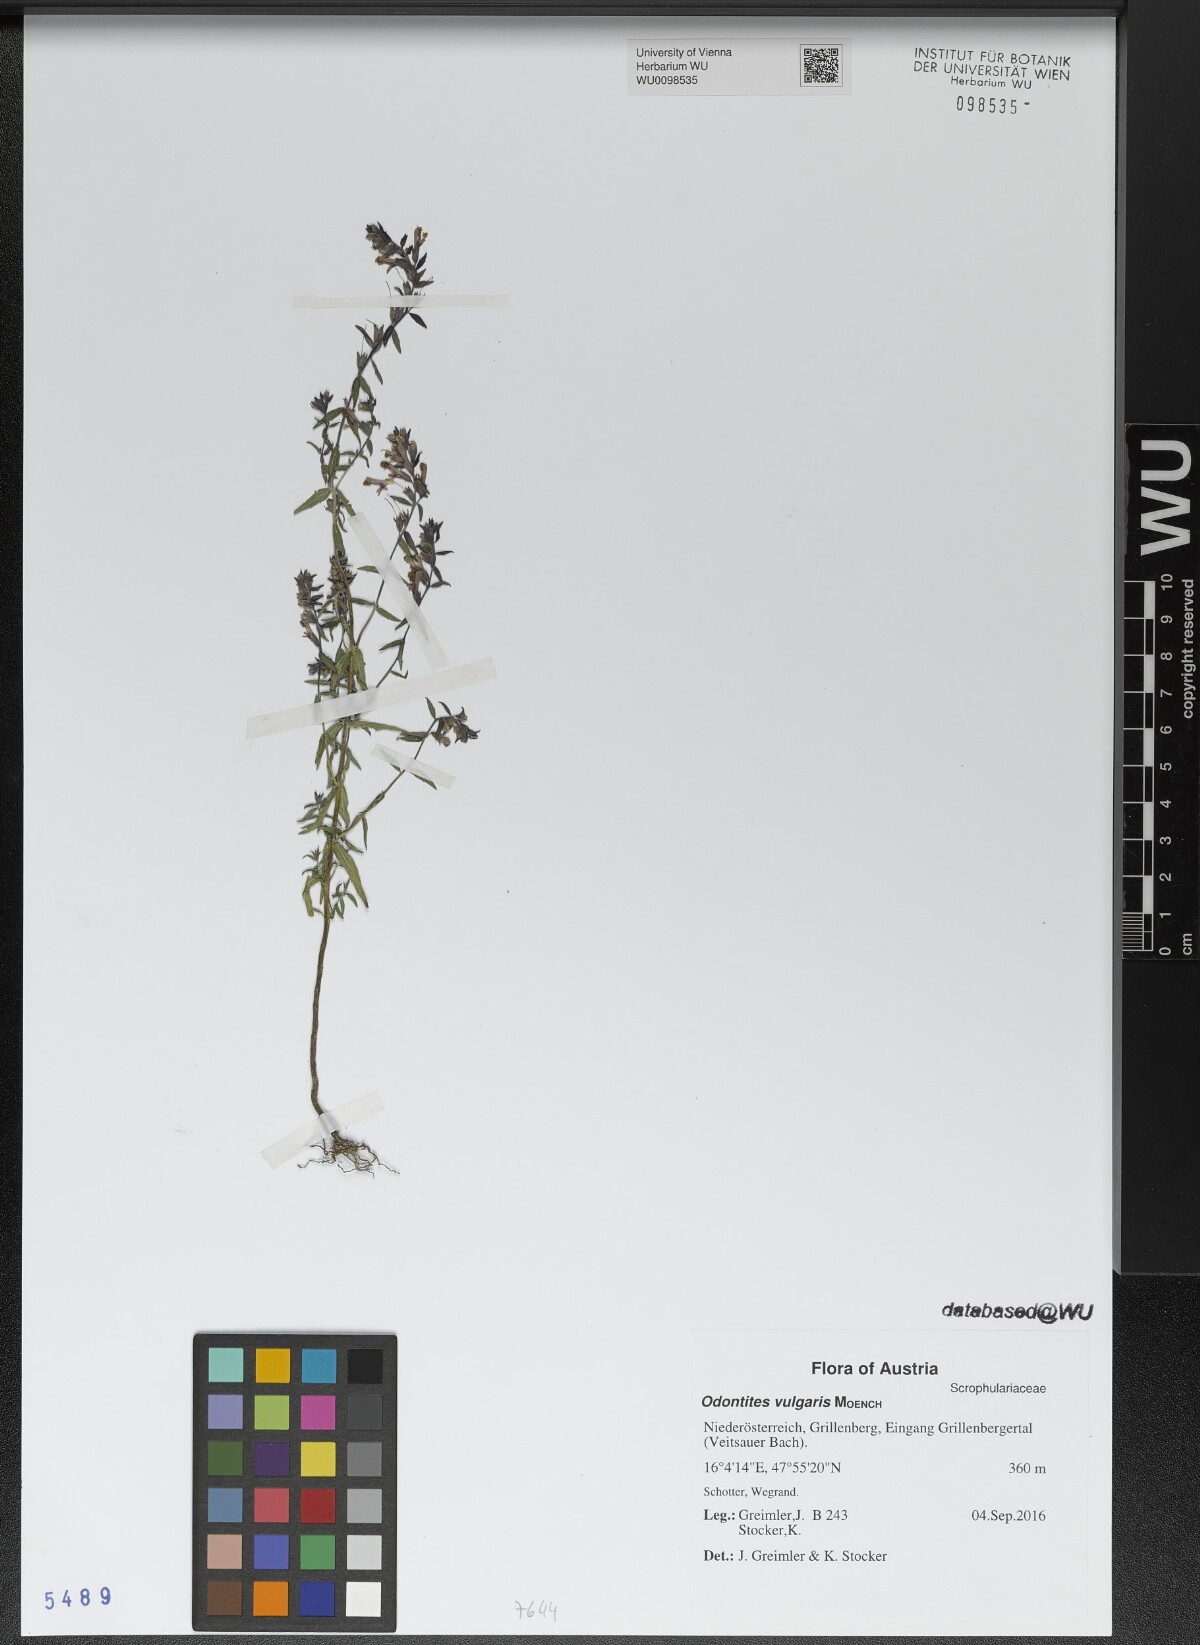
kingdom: Plantae
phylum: Tracheophyta
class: Magnoliopsida
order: Lamiales
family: Orobanchaceae
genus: Odontites
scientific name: Odontites vulgaris
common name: Broomrape
